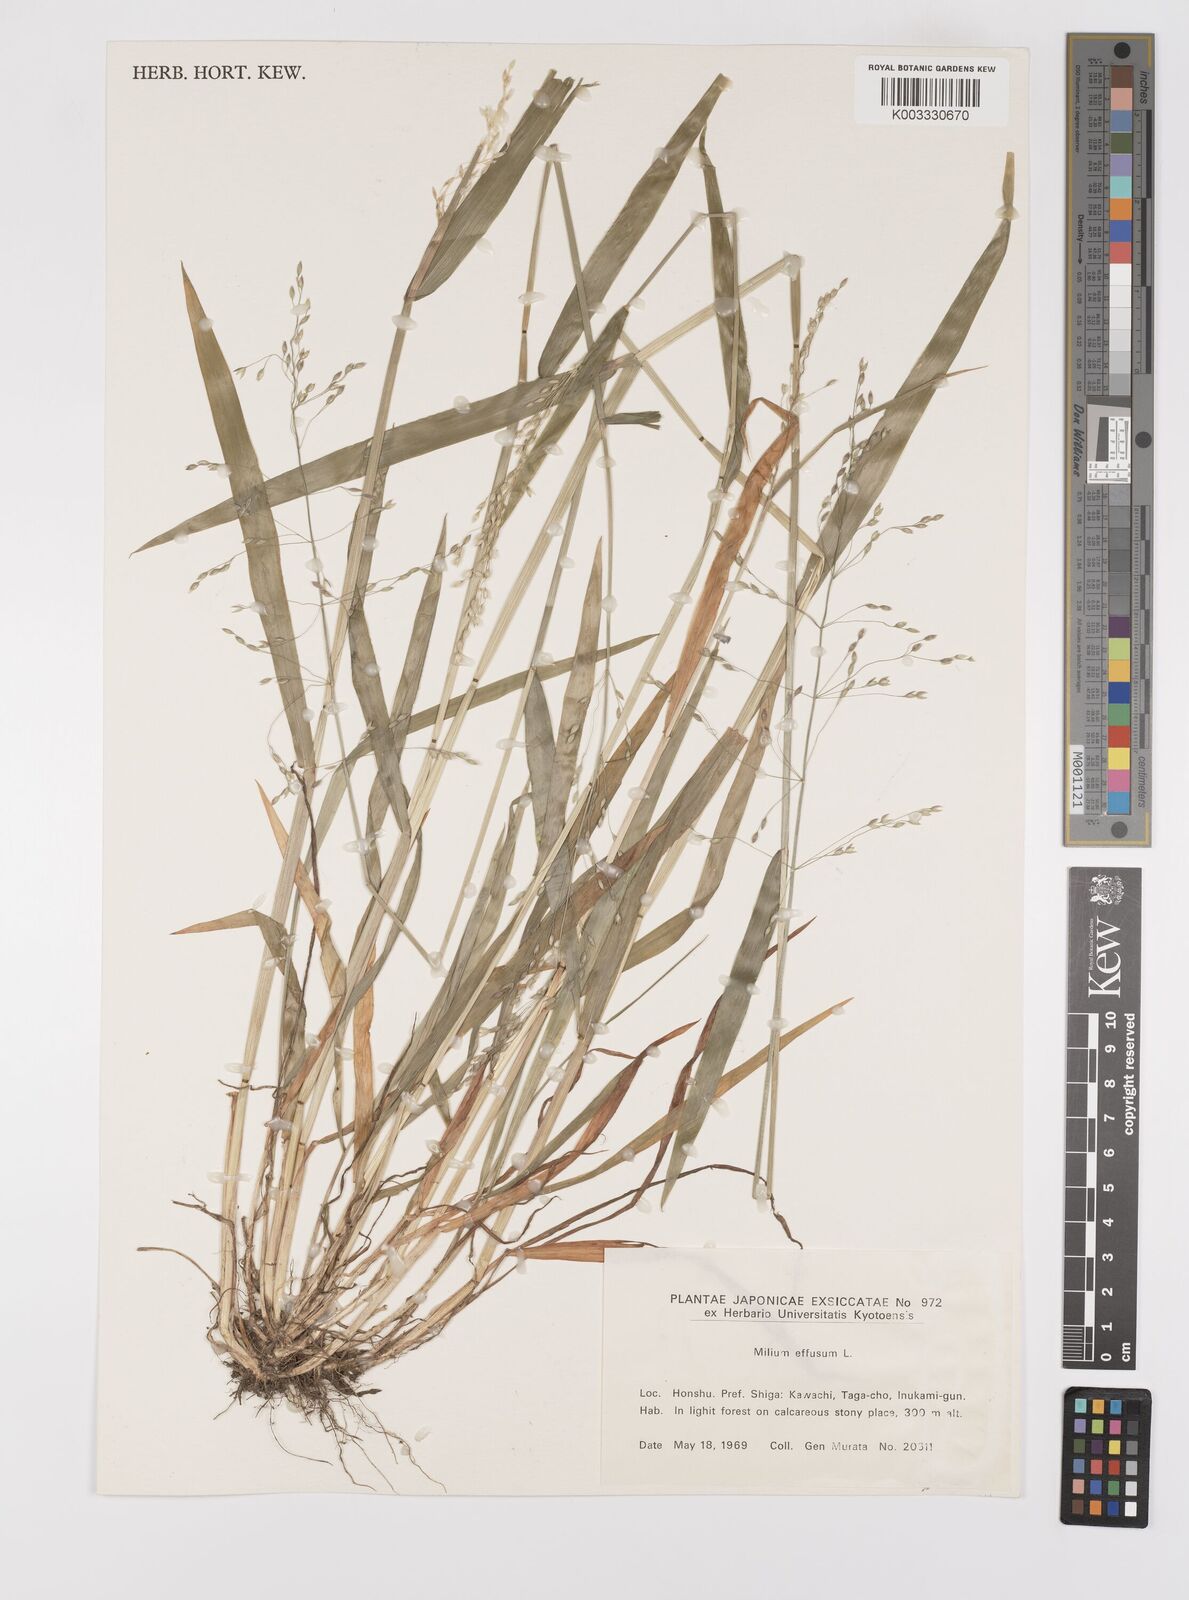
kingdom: Plantae
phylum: Tracheophyta
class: Liliopsida
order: Poales
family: Poaceae
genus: Milium
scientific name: Milium effusum
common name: Wood millet
